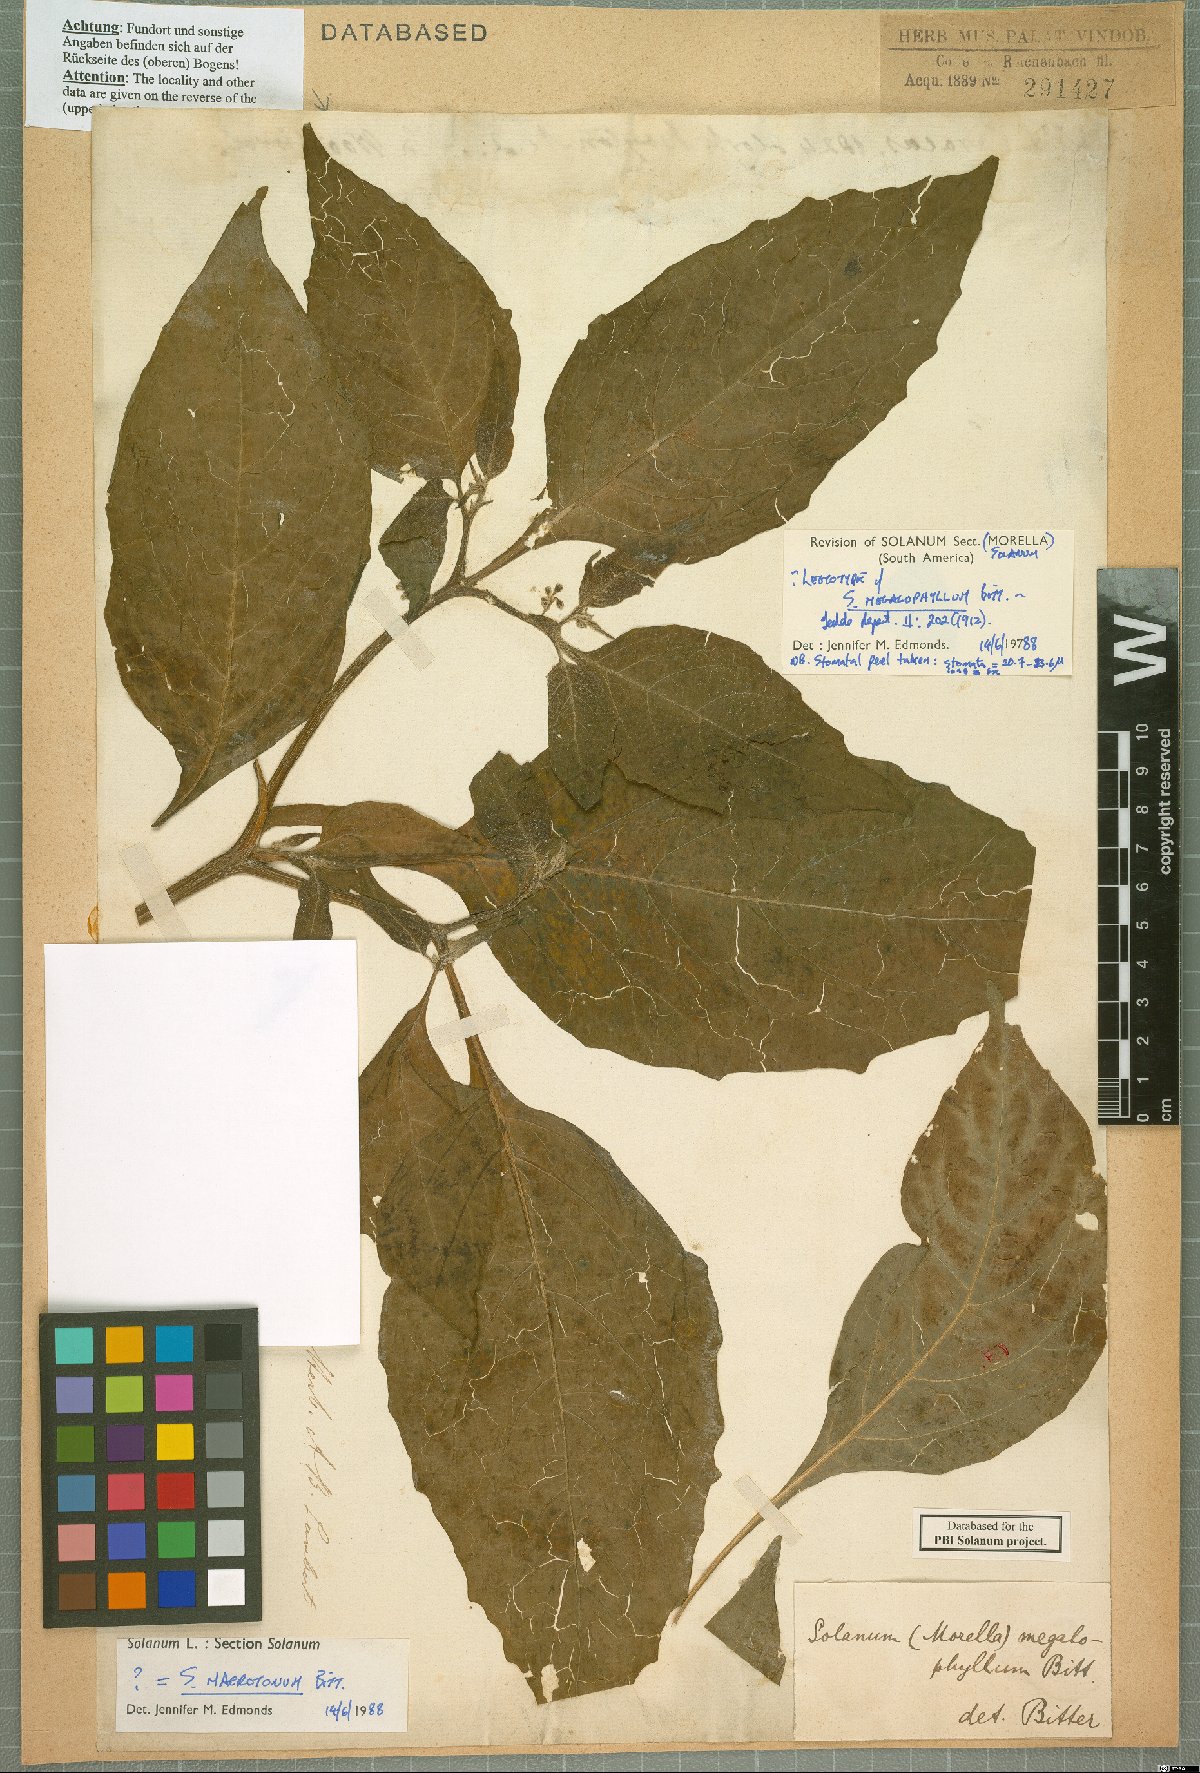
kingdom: Plantae
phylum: Tracheophyta
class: Magnoliopsida
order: Solanales
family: Solanaceae
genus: Solanum
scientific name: Solanum macrotonum
